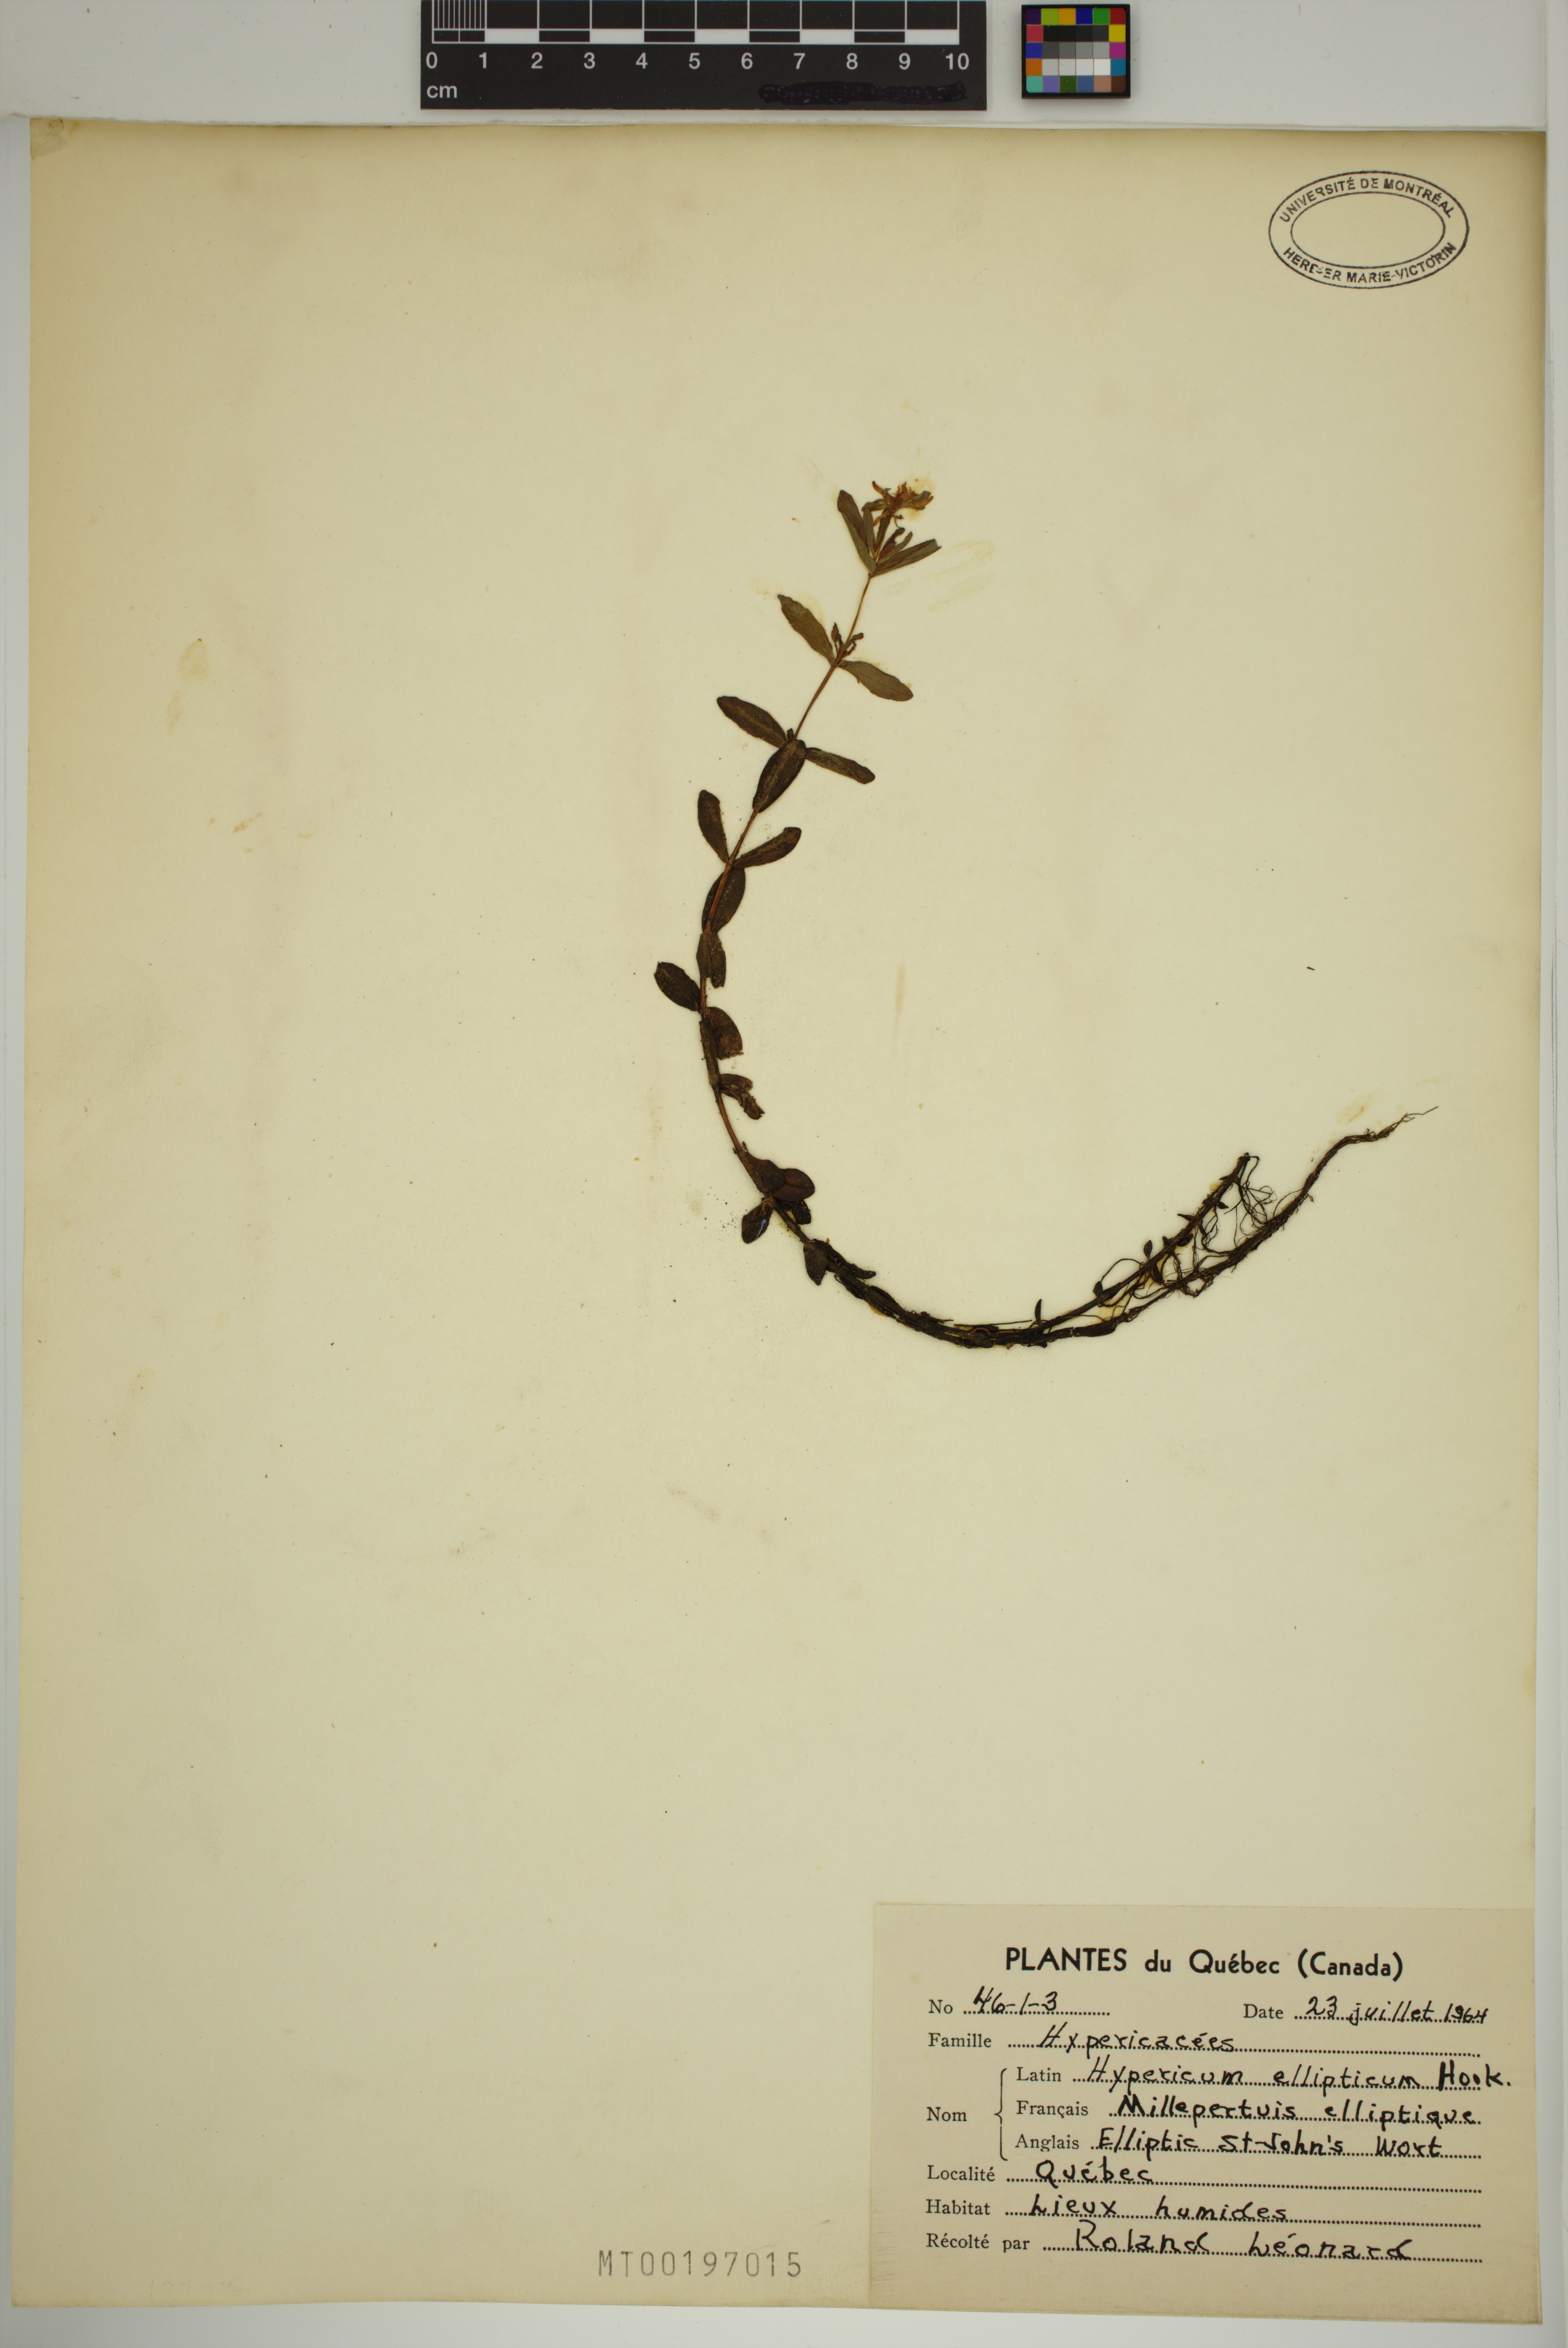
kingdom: Plantae
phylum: Tracheophyta
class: Magnoliopsida
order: Malpighiales
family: Hypericaceae
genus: Hypericum
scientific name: Hypericum ellipticum
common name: Elliptic st. john's-wort
